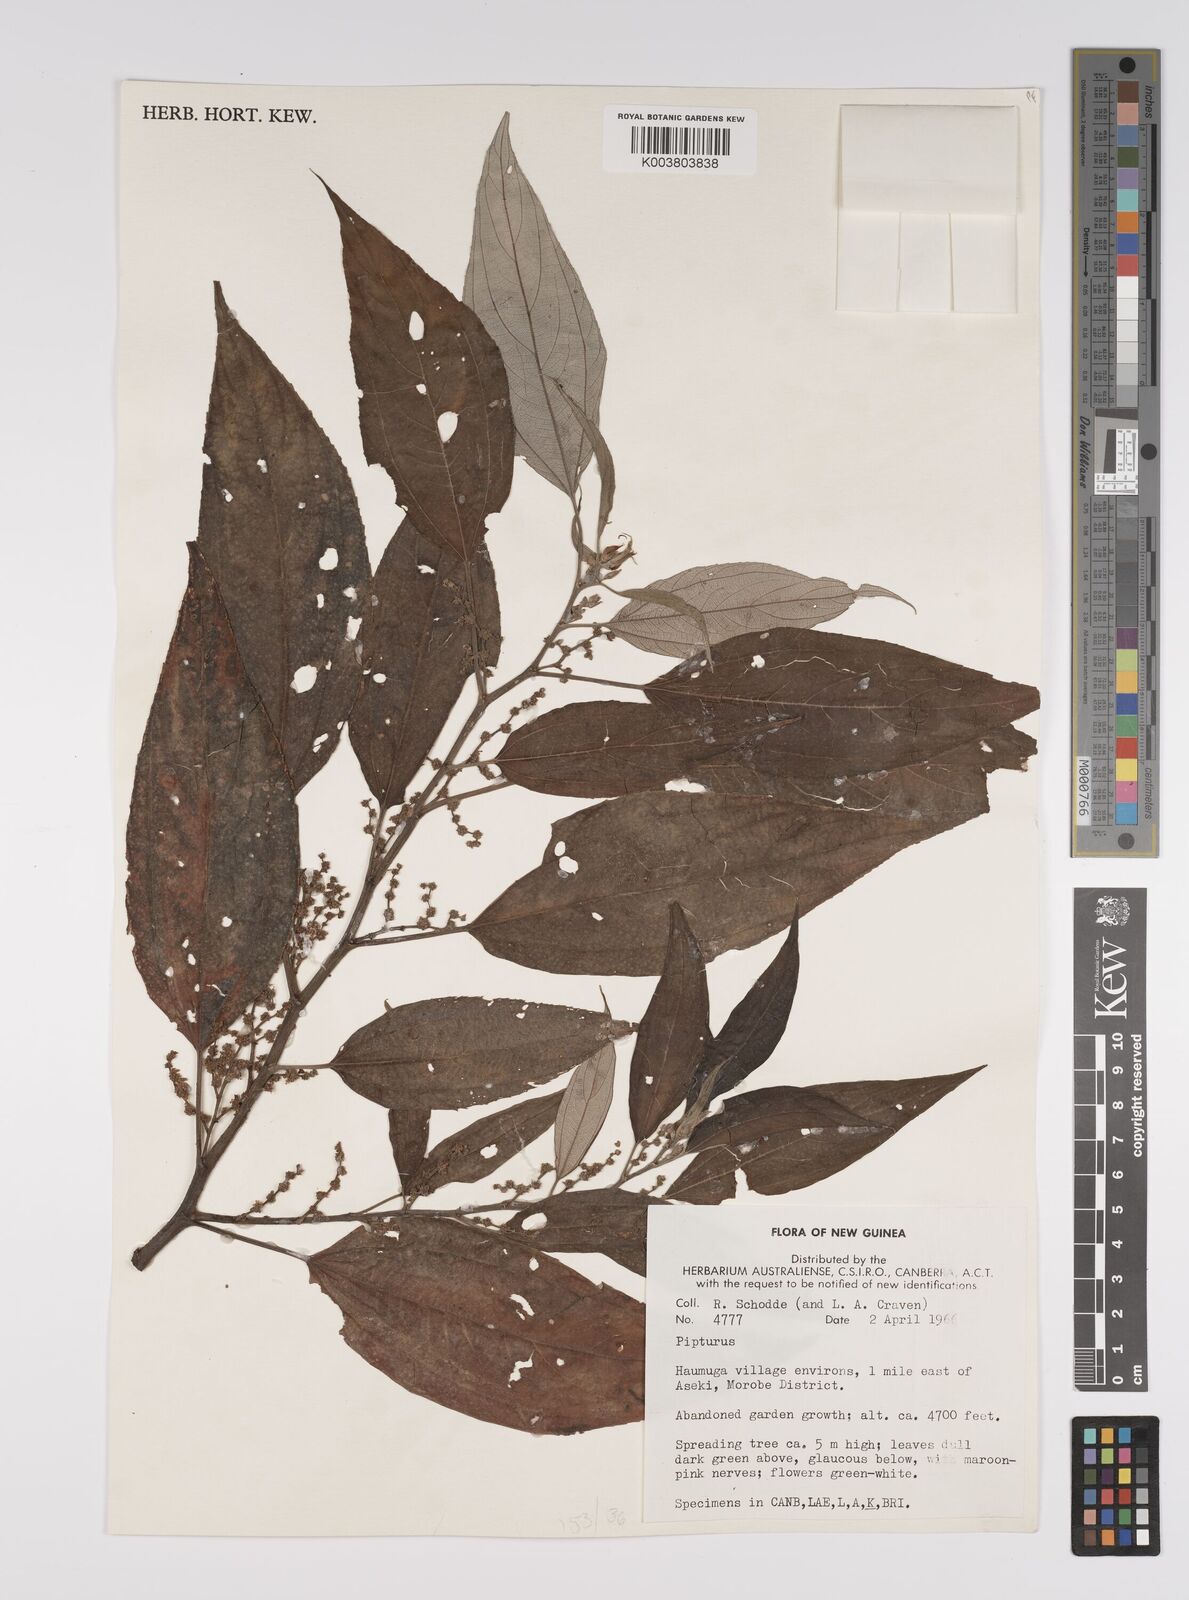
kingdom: Plantae
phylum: Tracheophyta
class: Magnoliopsida
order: Rosales
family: Urticaceae
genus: Pipturus
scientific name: Pipturus argenteus
